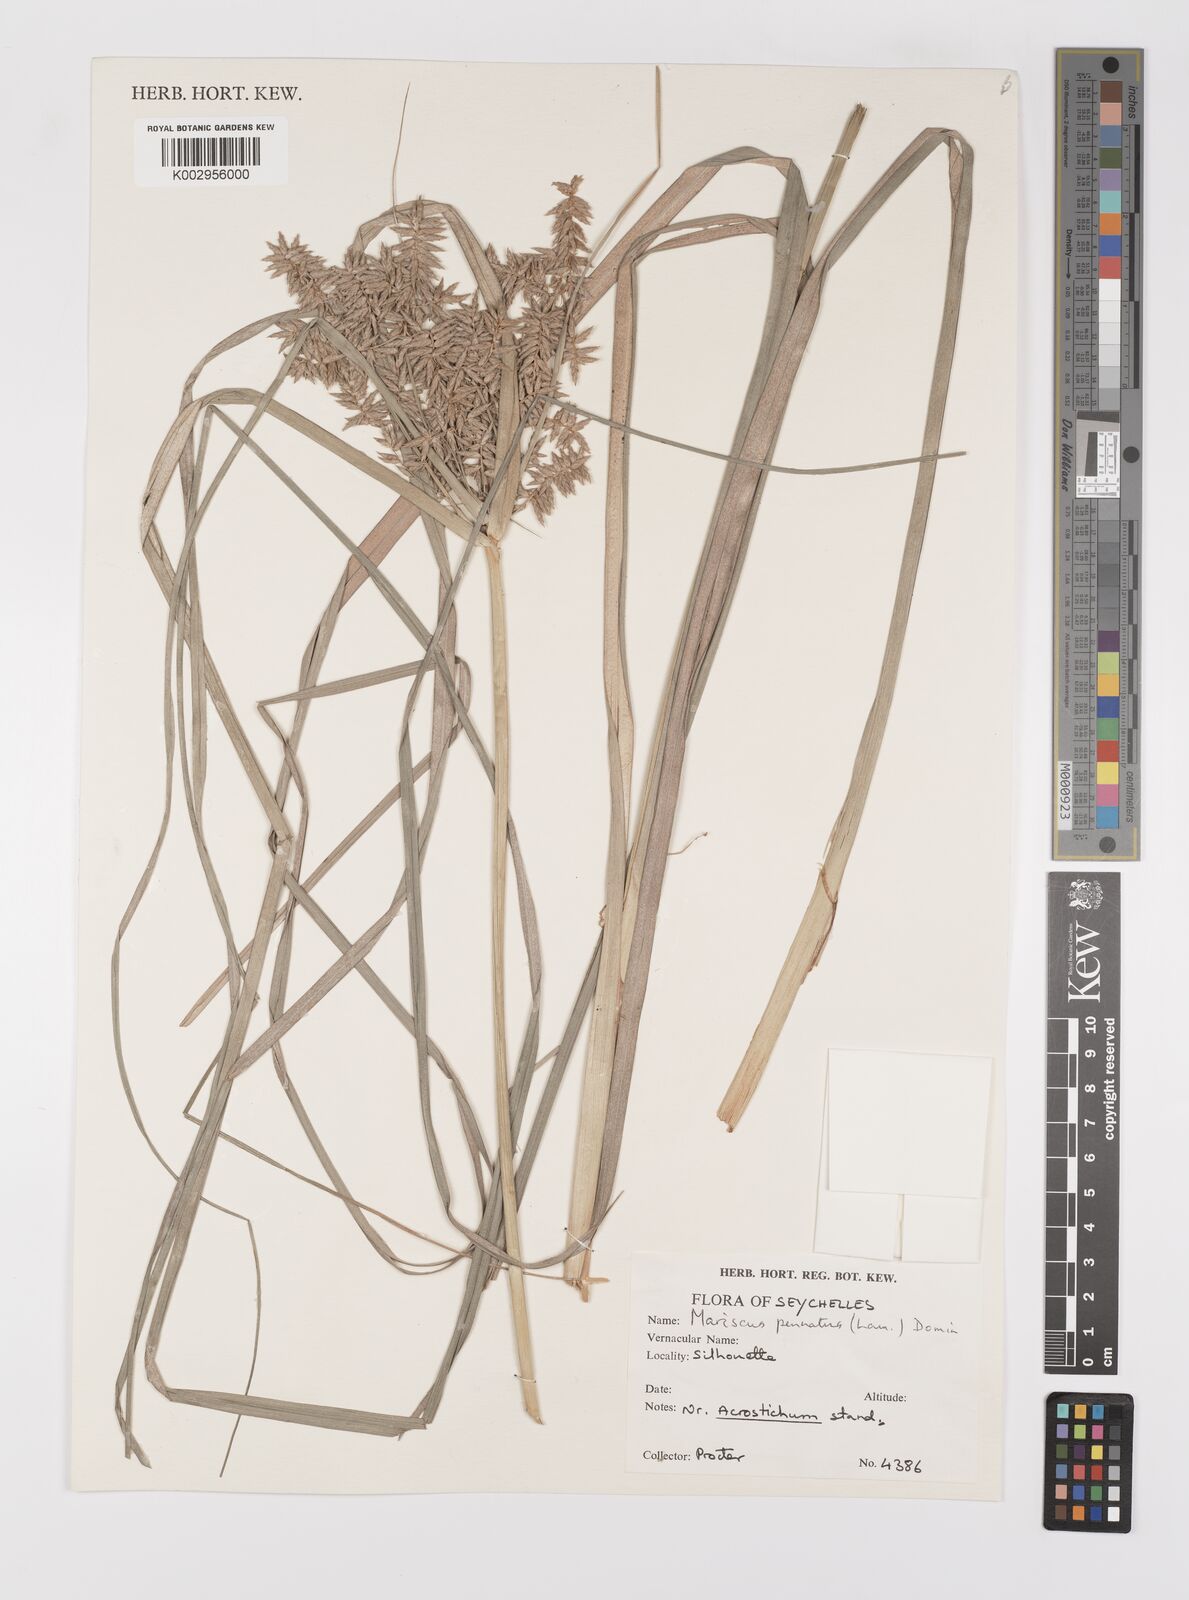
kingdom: Plantae
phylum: Tracheophyta
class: Liliopsida
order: Poales
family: Cyperaceae
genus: Cyperus
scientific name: Cyperus javanicus
